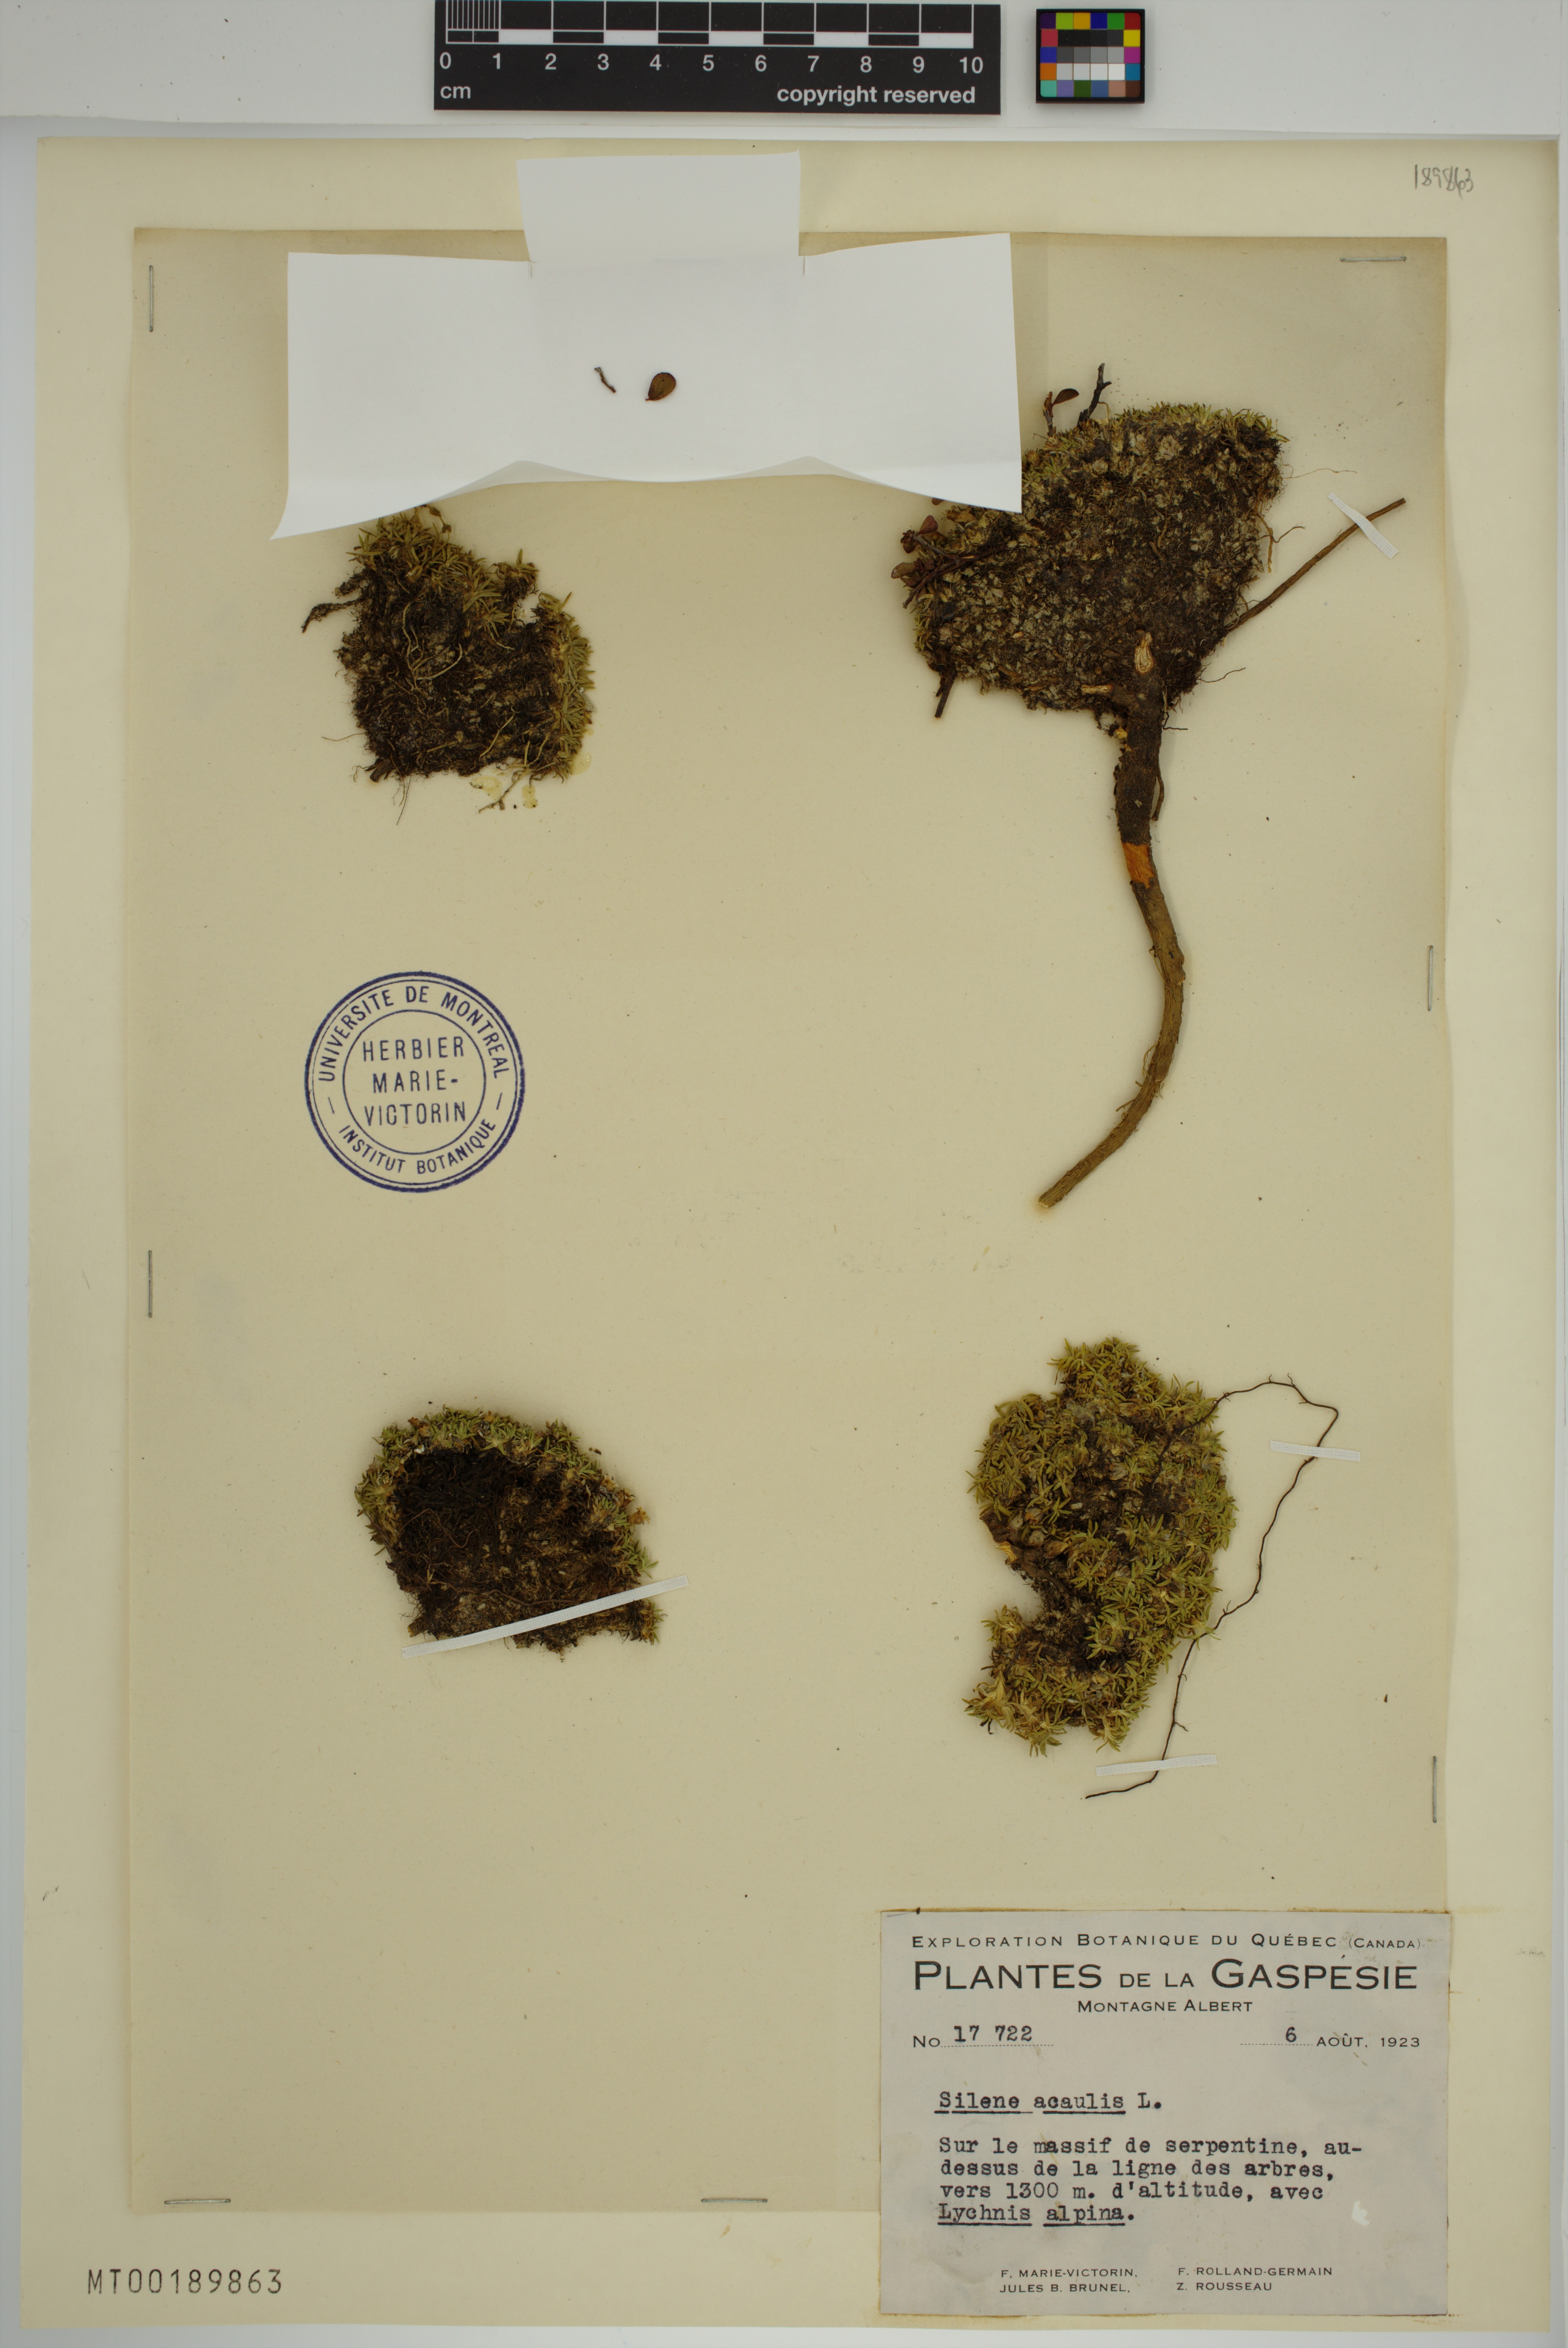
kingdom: Plantae
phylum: Tracheophyta
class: Magnoliopsida
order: Caryophyllales
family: Caryophyllaceae
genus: Silene
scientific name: Silene acaulis
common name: Moss campion
